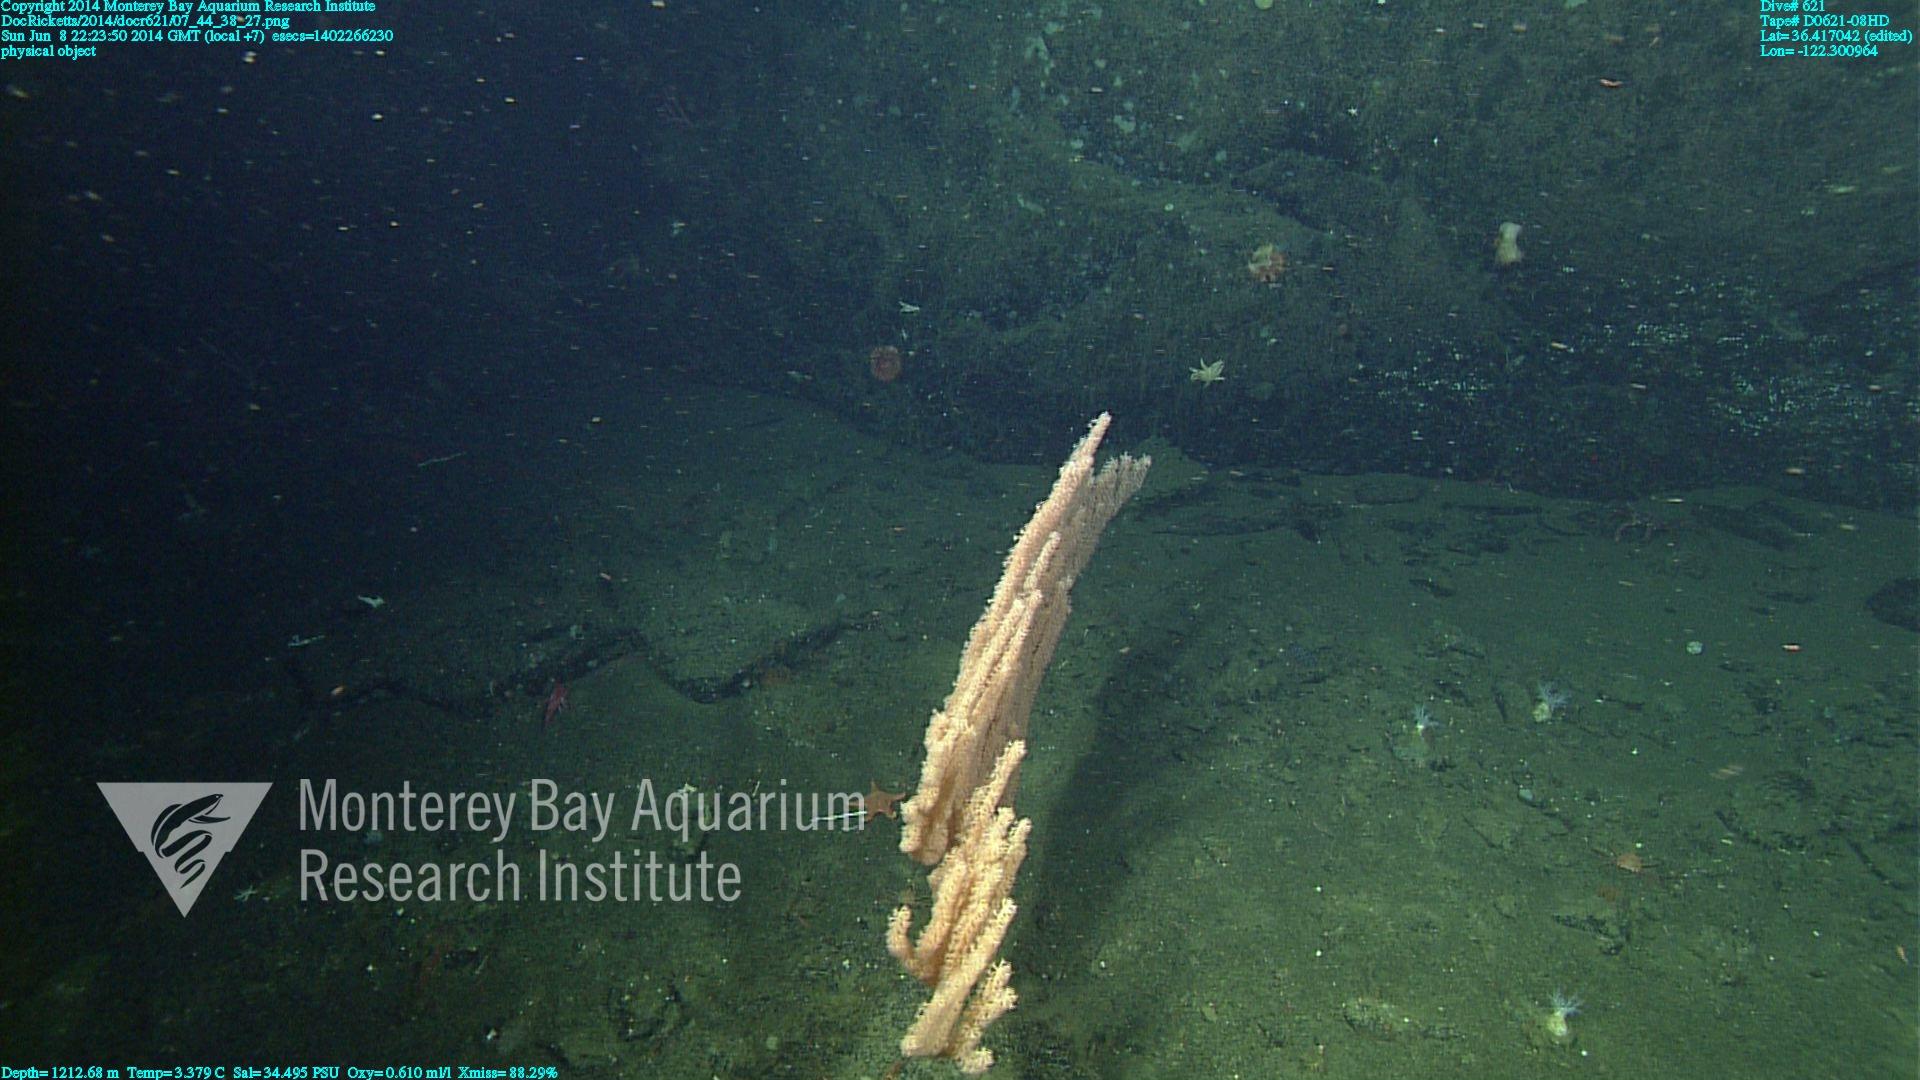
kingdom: Animalia
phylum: Cnidaria
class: Anthozoa
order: Scleralcyonacea
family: Keratoisididae
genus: Isidella
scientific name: Isidella tentaculum
